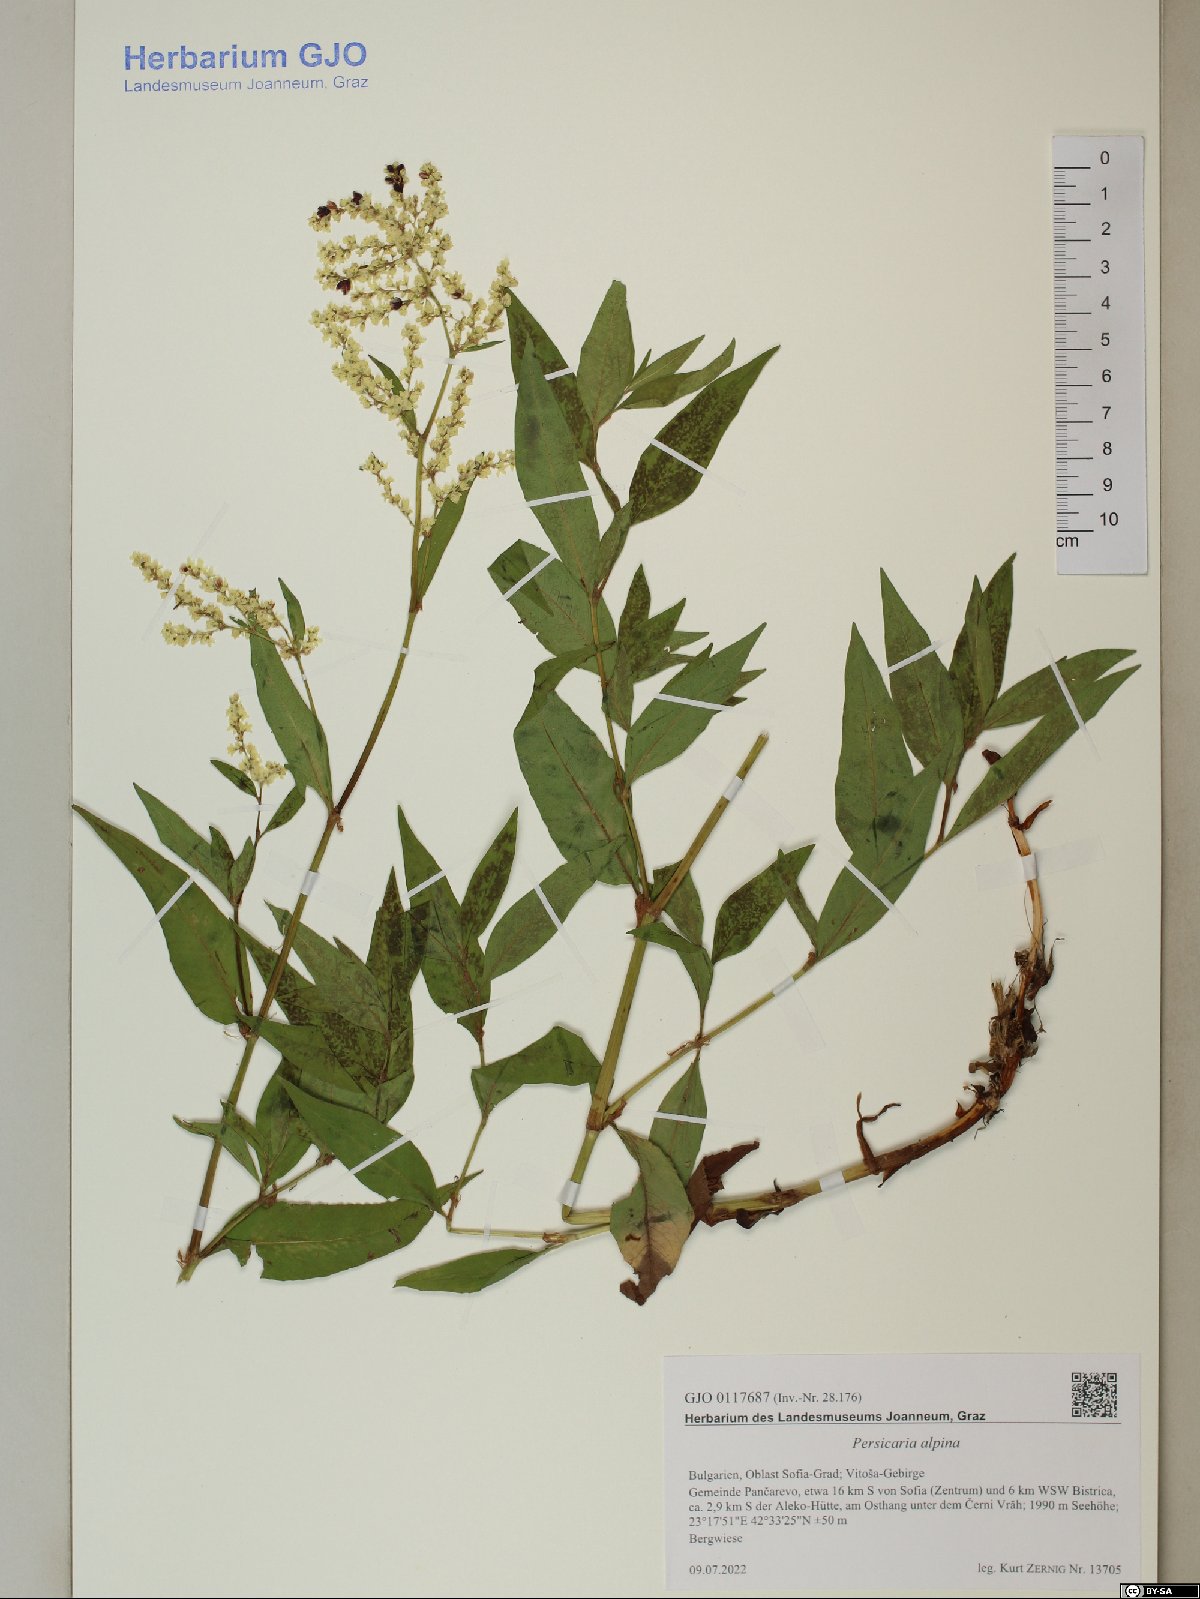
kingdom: Plantae
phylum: Tracheophyta
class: Magnoliopsida
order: Caryophyllales
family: Polygonaceae
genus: Koenigia
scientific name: Koenigia alpina
